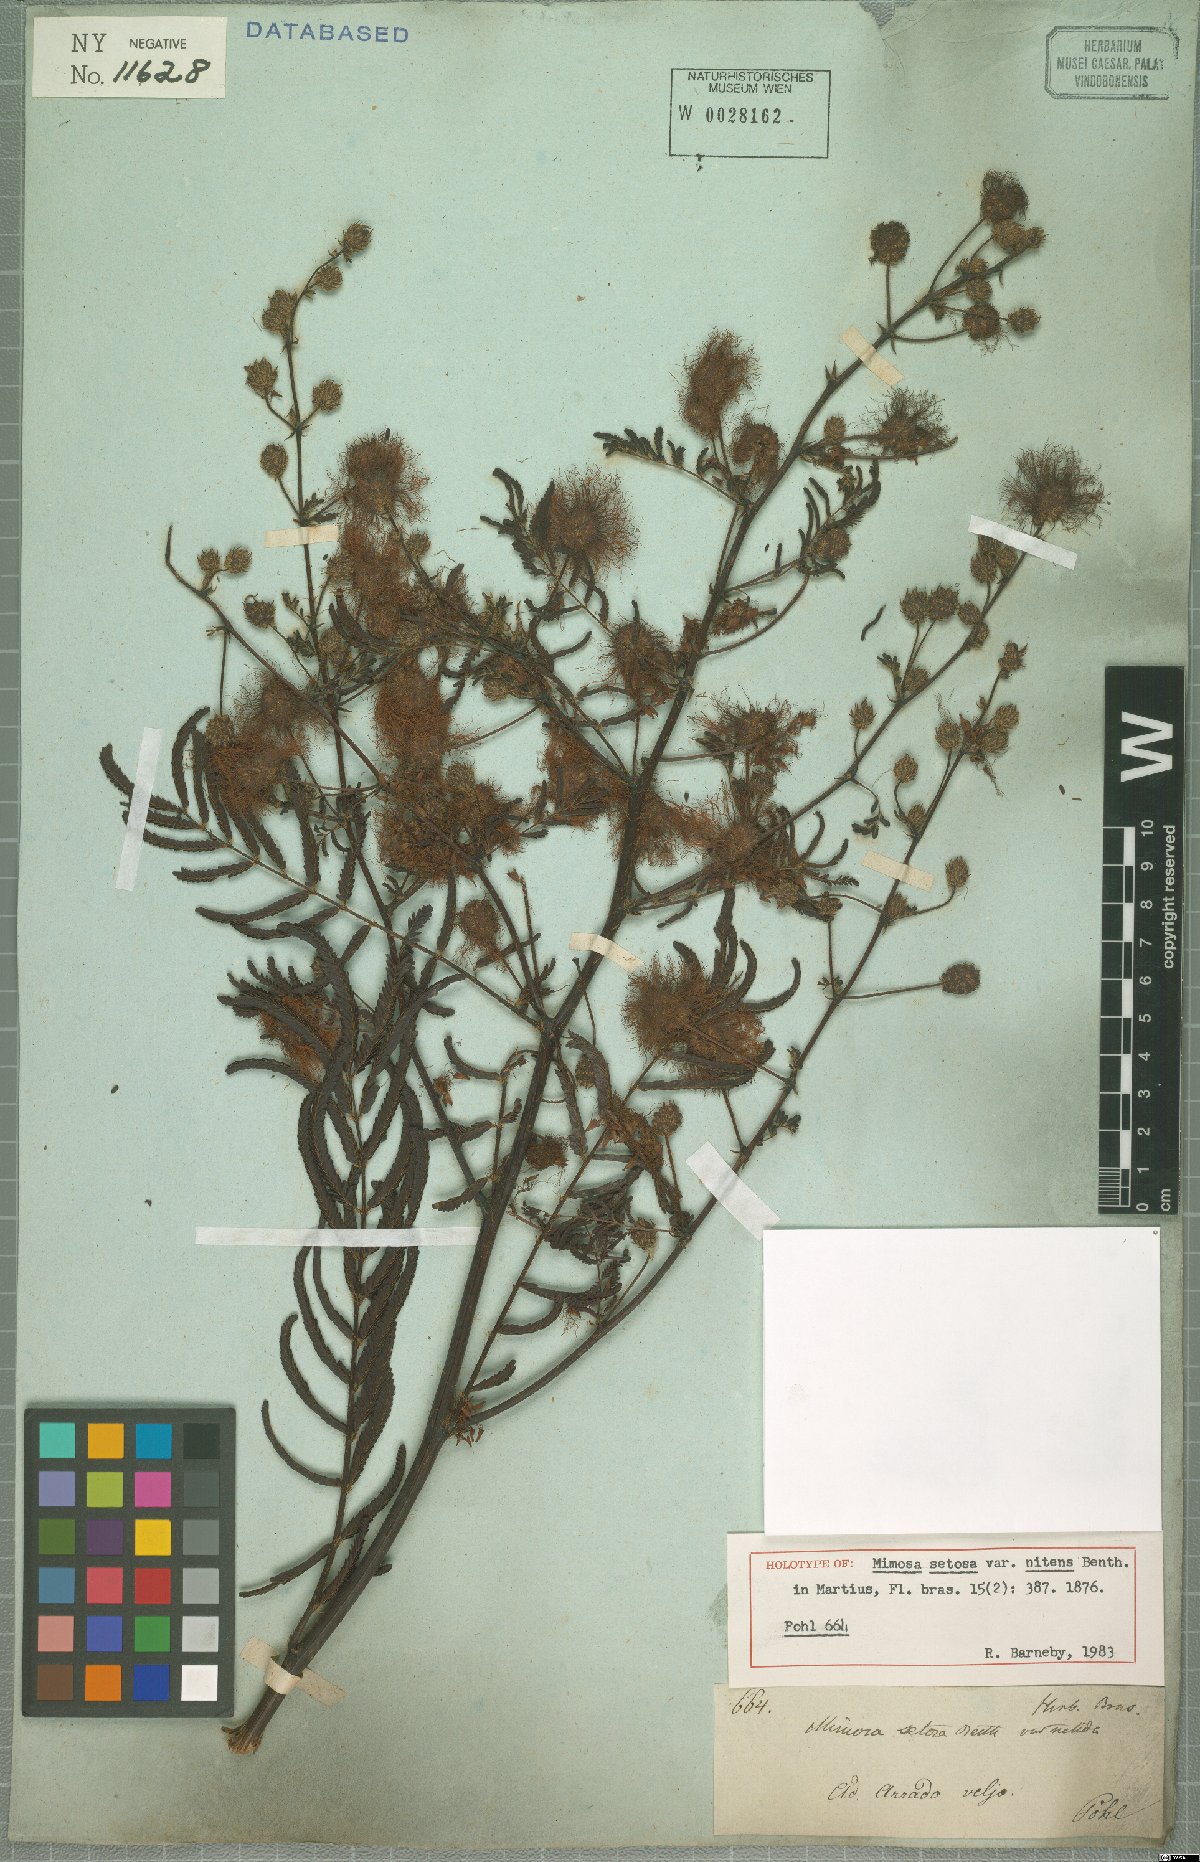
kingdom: Plantae
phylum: Tracheophyta
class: Magnoliopsida
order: Fabales
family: Fabaceae
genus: Mimosa
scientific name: Mimosa neonitens
